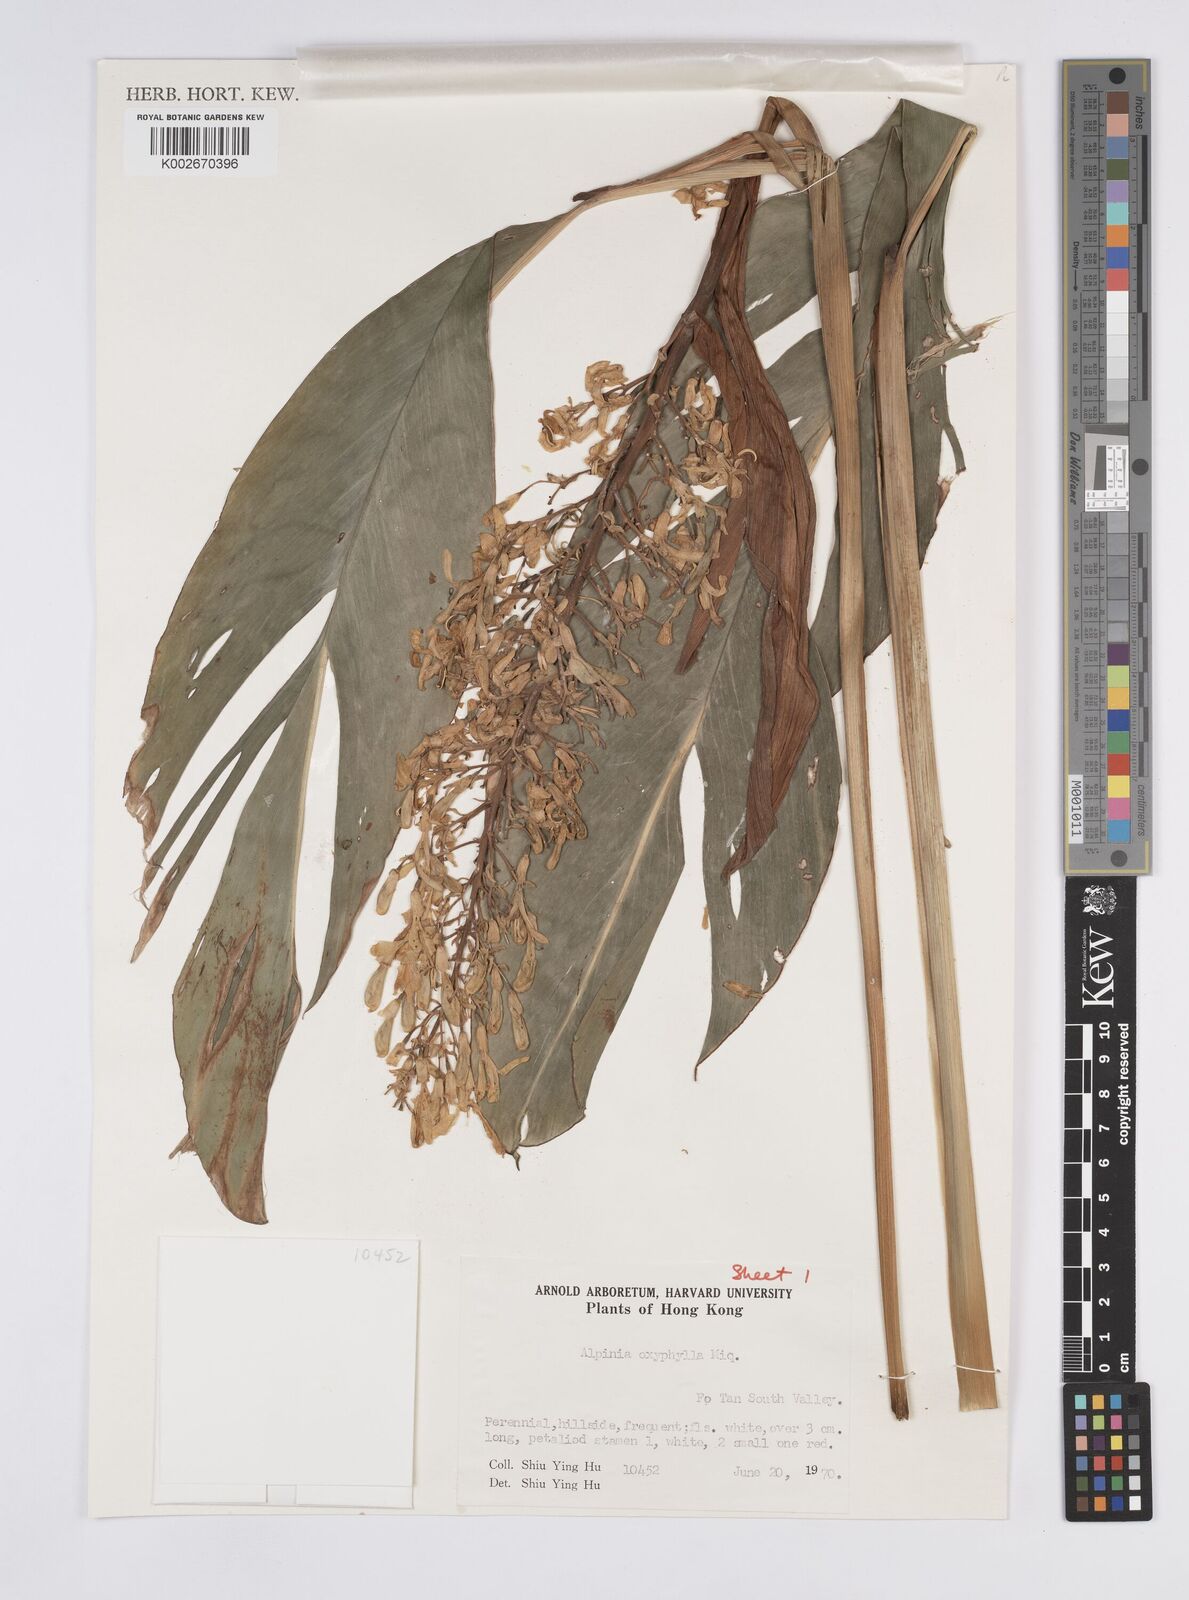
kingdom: Plantae
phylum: Tracheophyta
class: Liliopsida
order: Zingiberales
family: Zingiberaceae
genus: Alpinia
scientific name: Alpinia galanga
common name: Siamese-ginger
